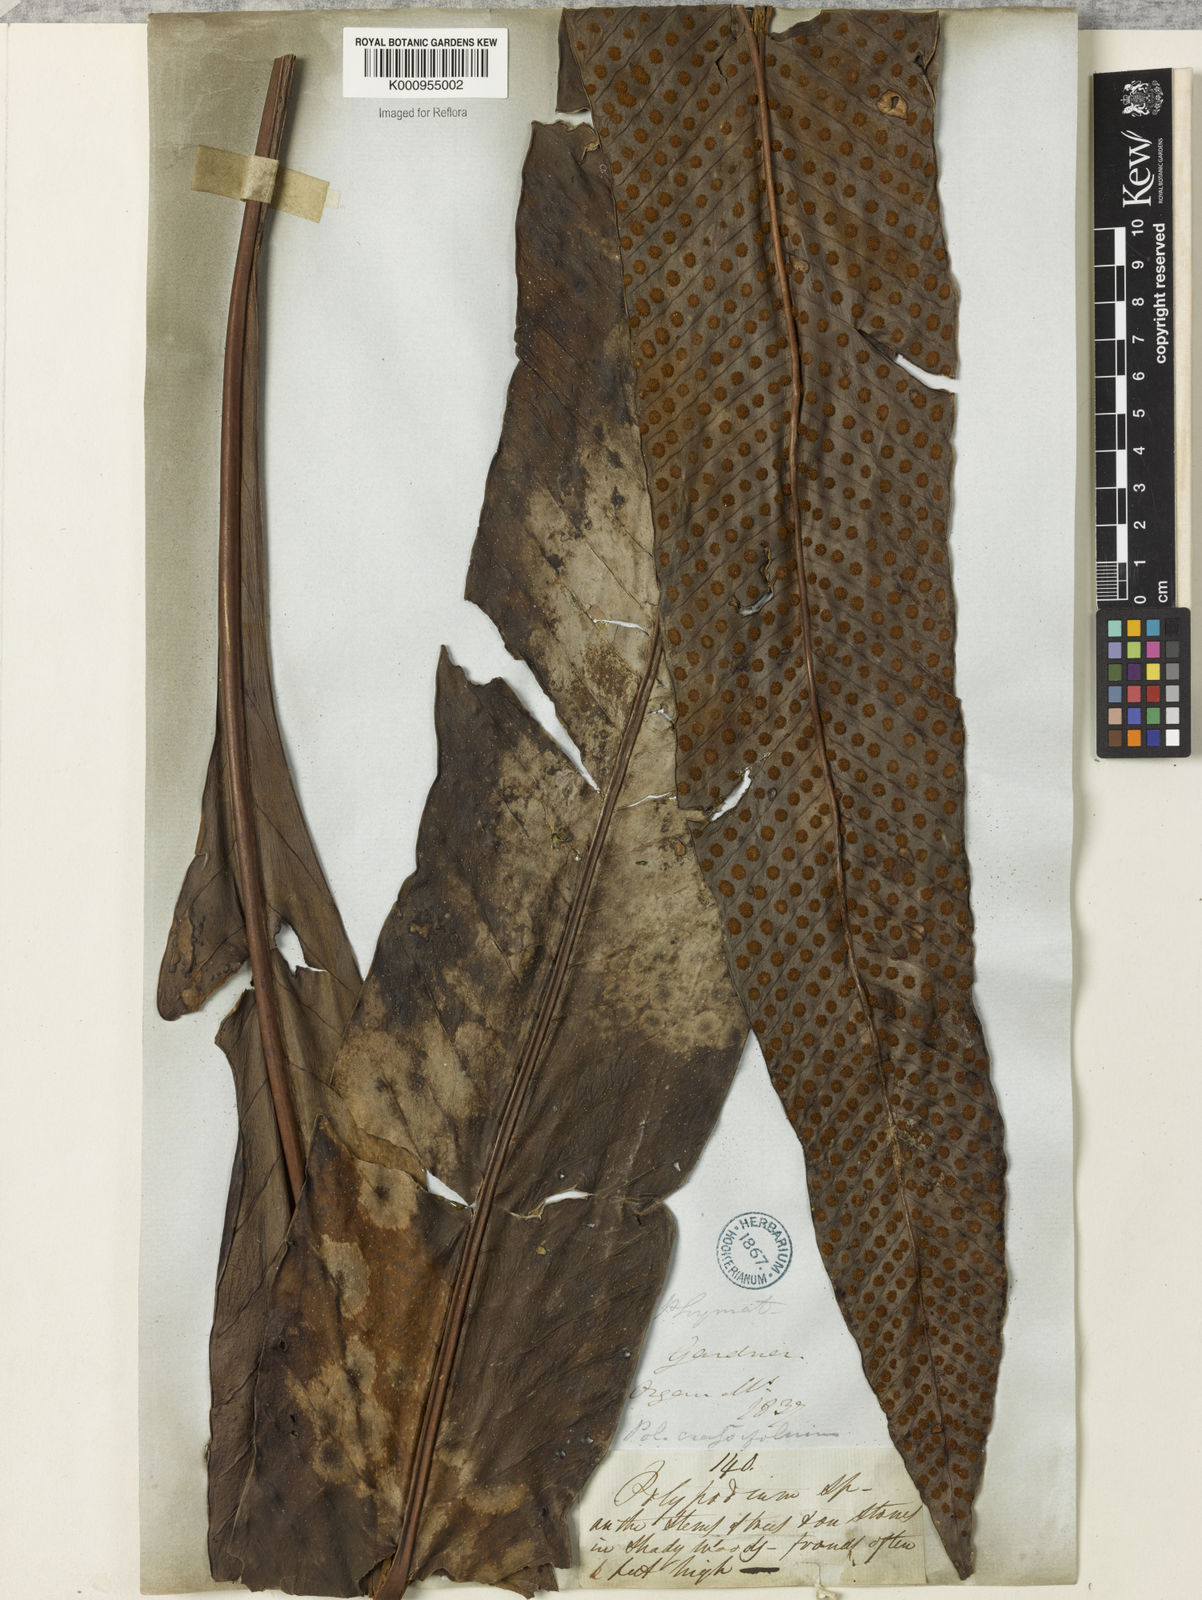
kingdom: Plantae
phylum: Tracheophyta
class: Polypodiopsida
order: Polypodiales
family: Polypodiaceae
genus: Niphidium
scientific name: Niphidium crassifolium
